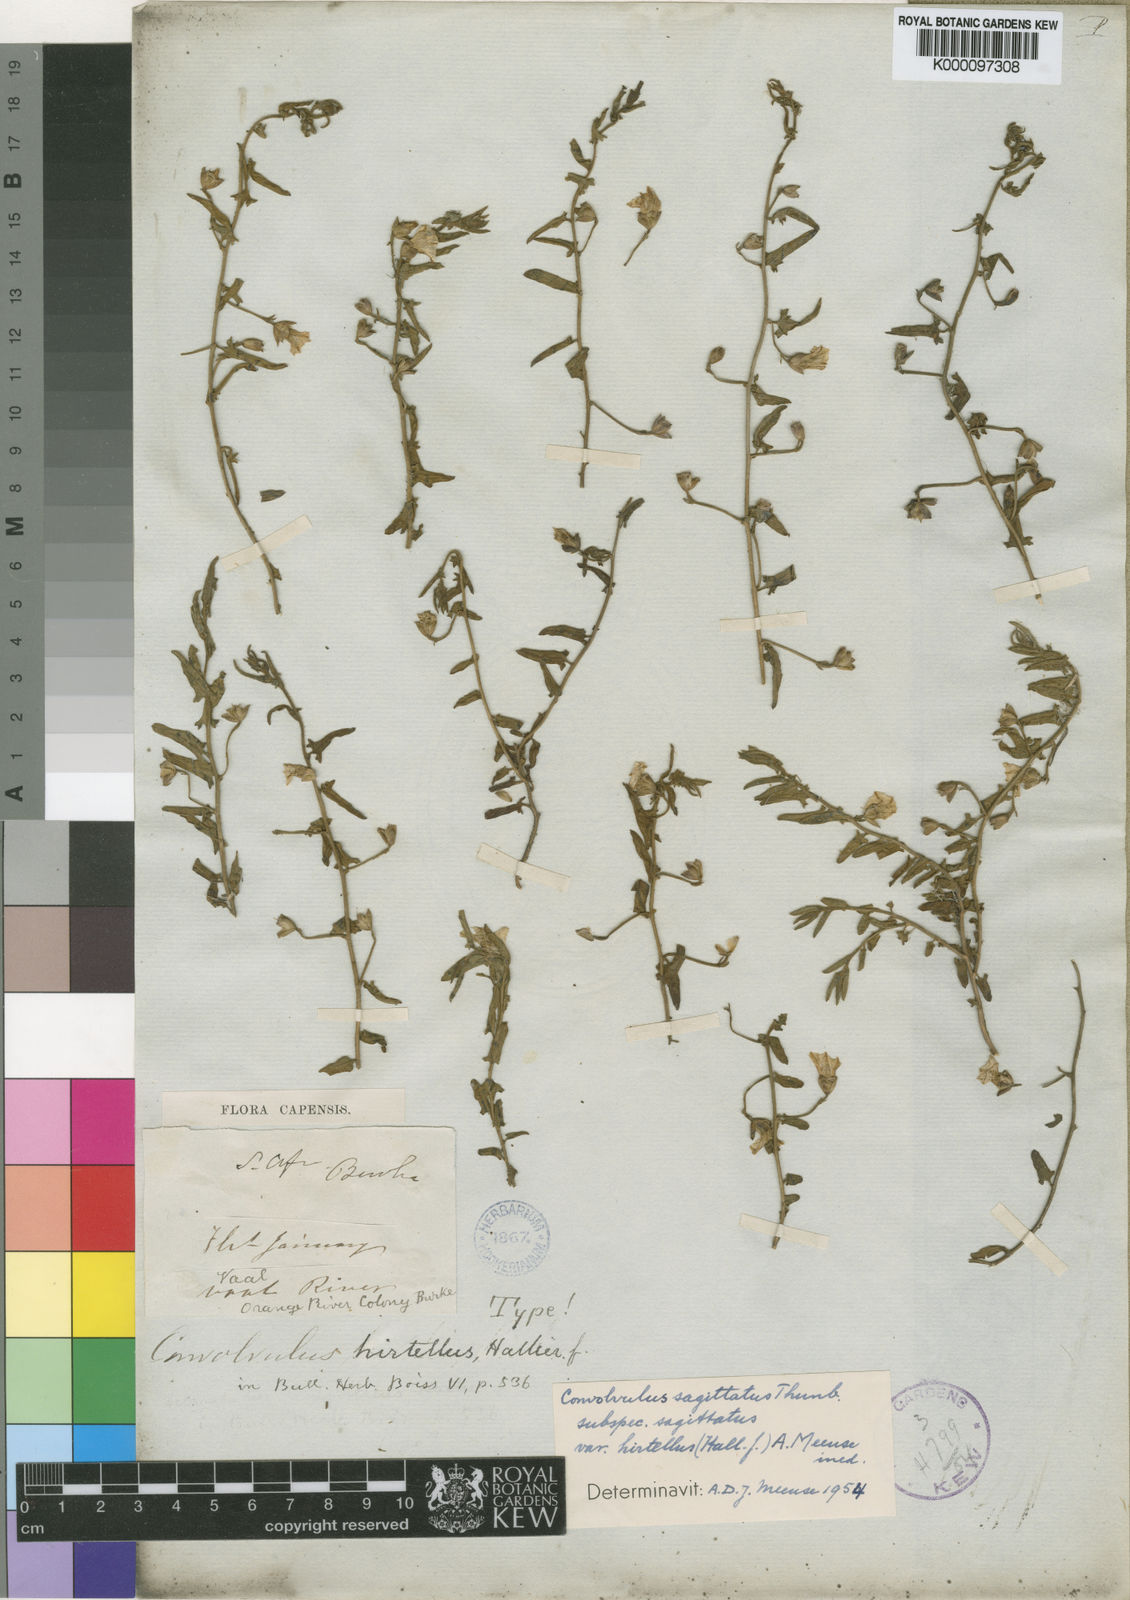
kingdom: Plantae
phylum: Tracheophyta
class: Magnoliopsida
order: Solanales
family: Convolvulaceae
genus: Convolvulus
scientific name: Convolvulus sagittatus
